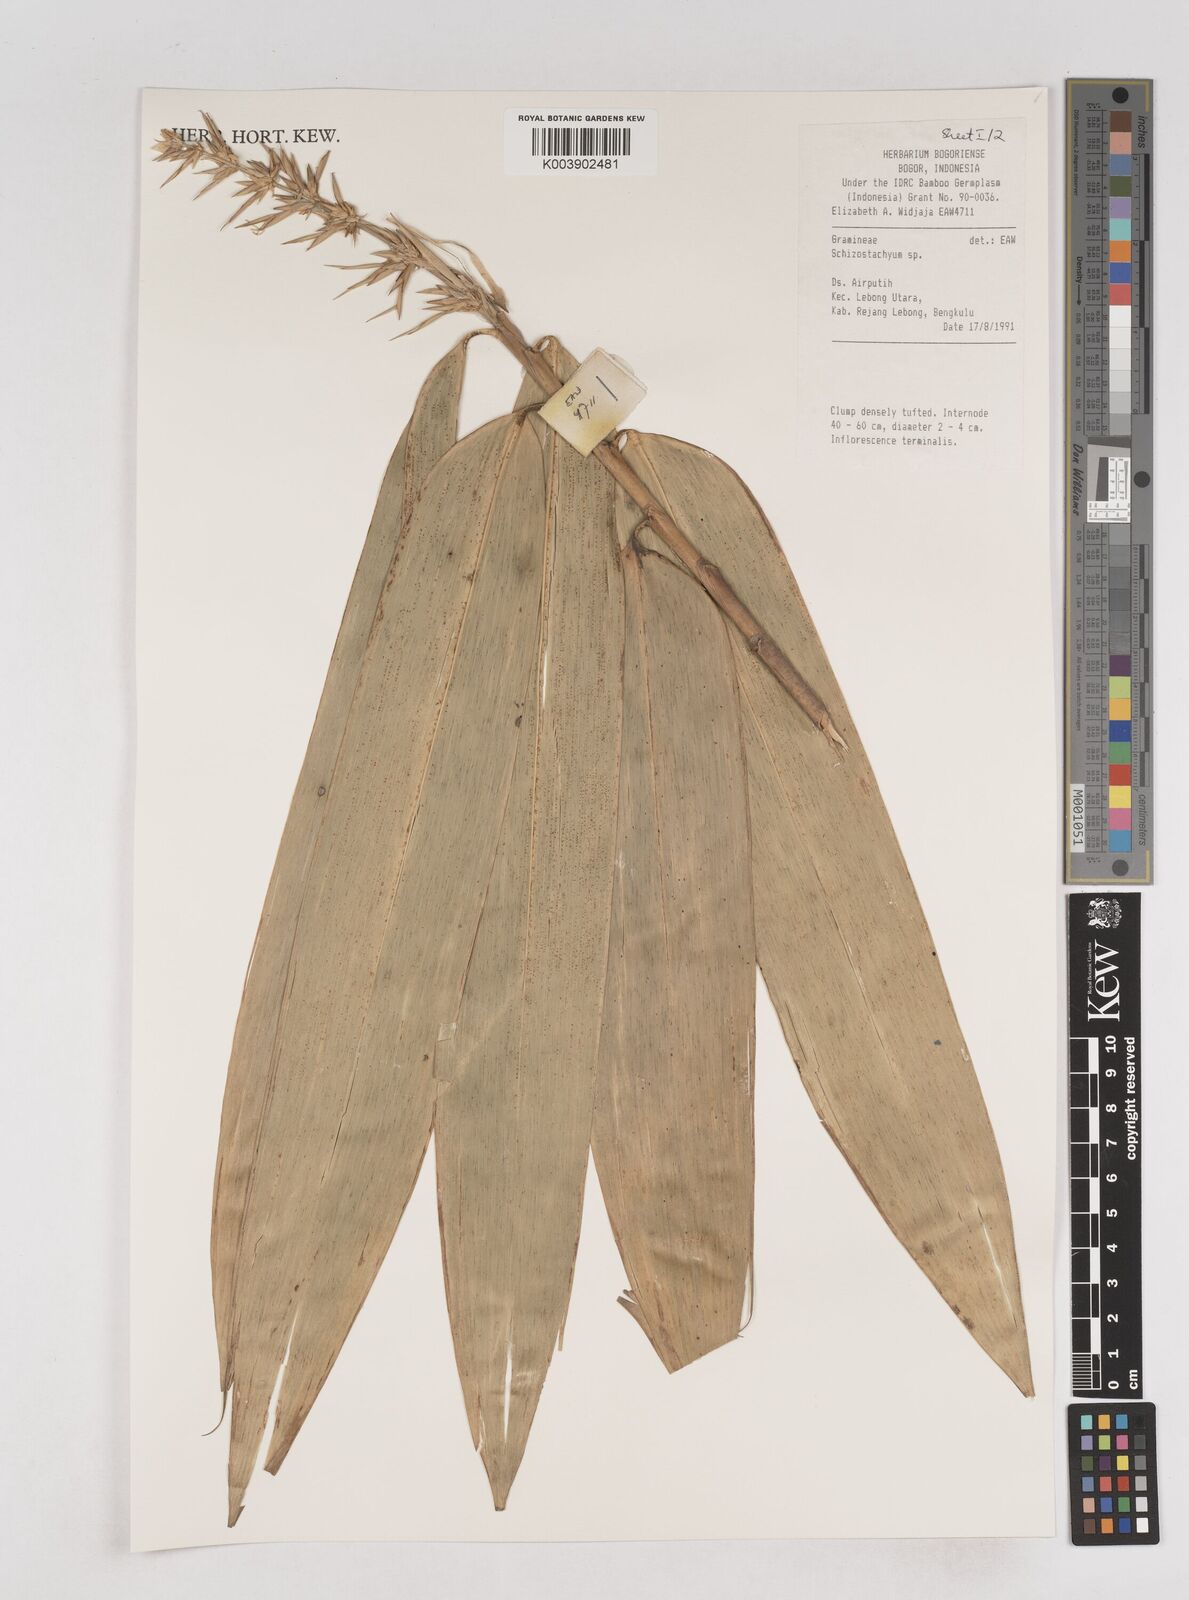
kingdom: Plantae
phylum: Tracheophyta
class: Liliopsida
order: Poales
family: Poaceae
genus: Schizostachyum
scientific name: Schizostachyum
